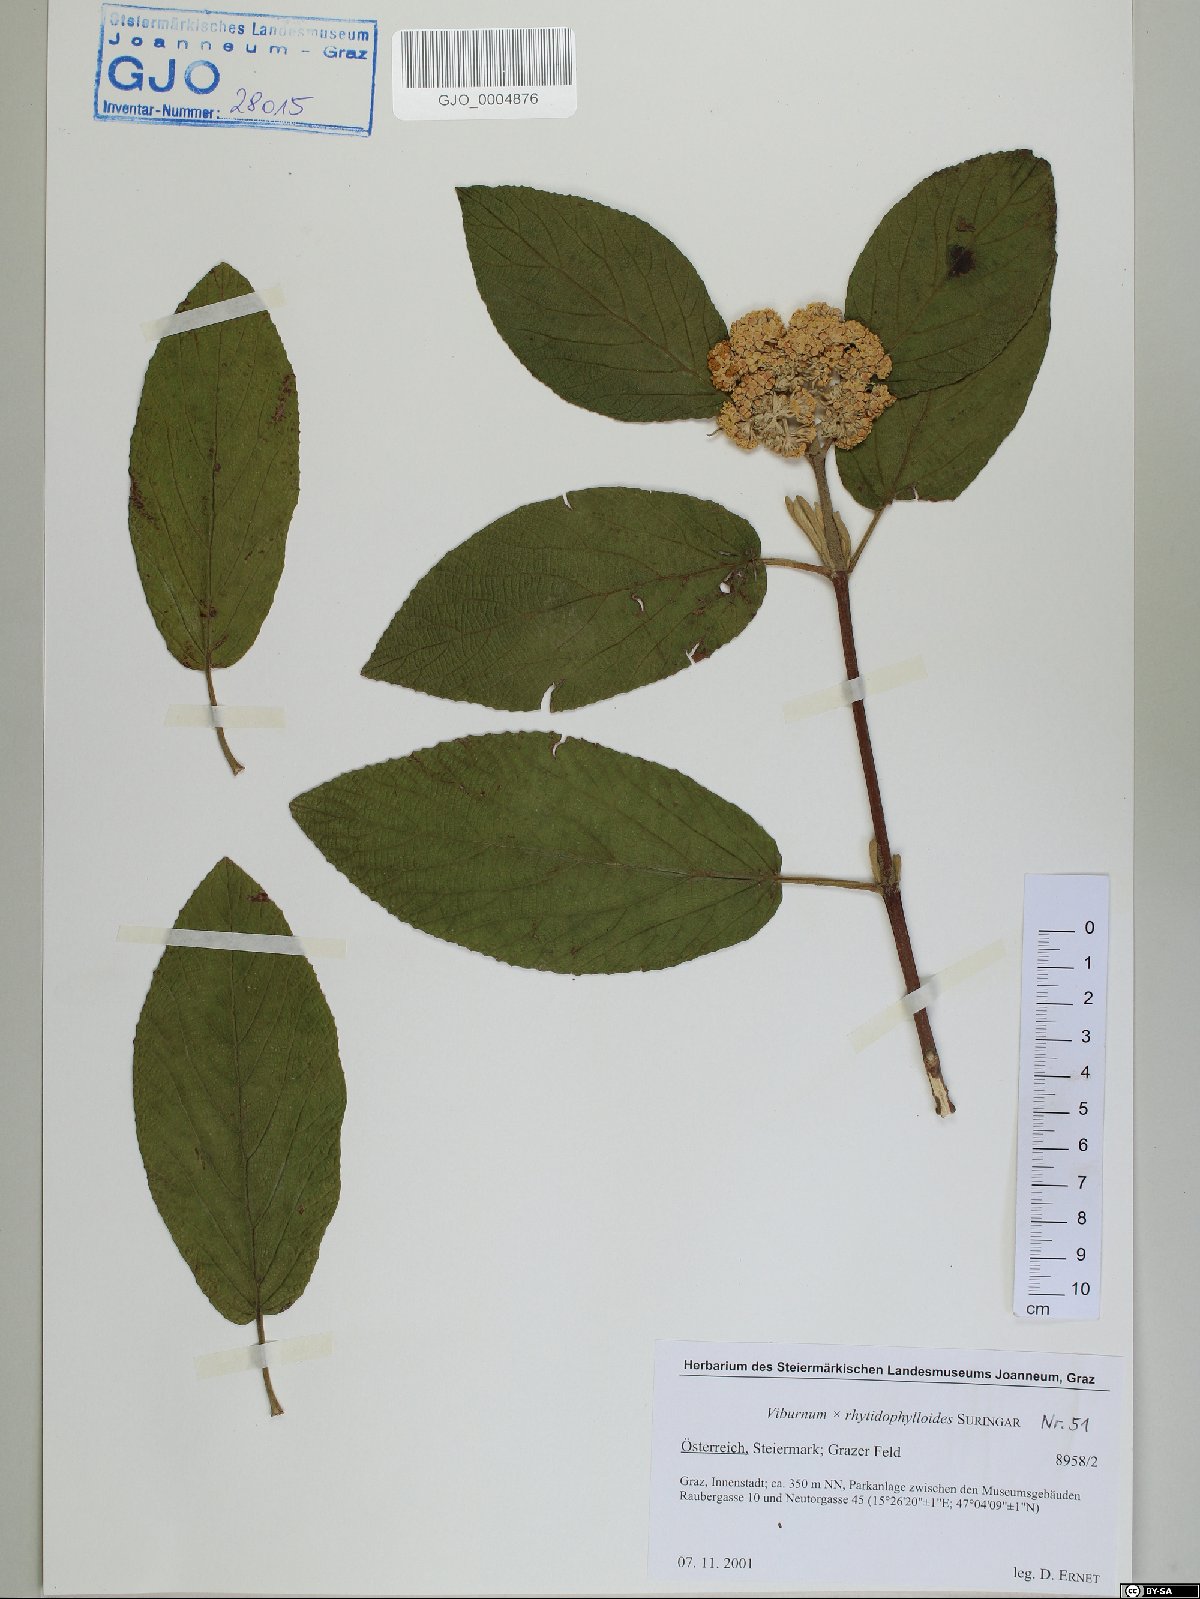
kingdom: Plantae
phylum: Tracheophyta
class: Magnoliopsida
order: Dipsacales
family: Viburnaceae
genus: Viburnum
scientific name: Viburnum rhytidophylloides
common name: Viburnum
